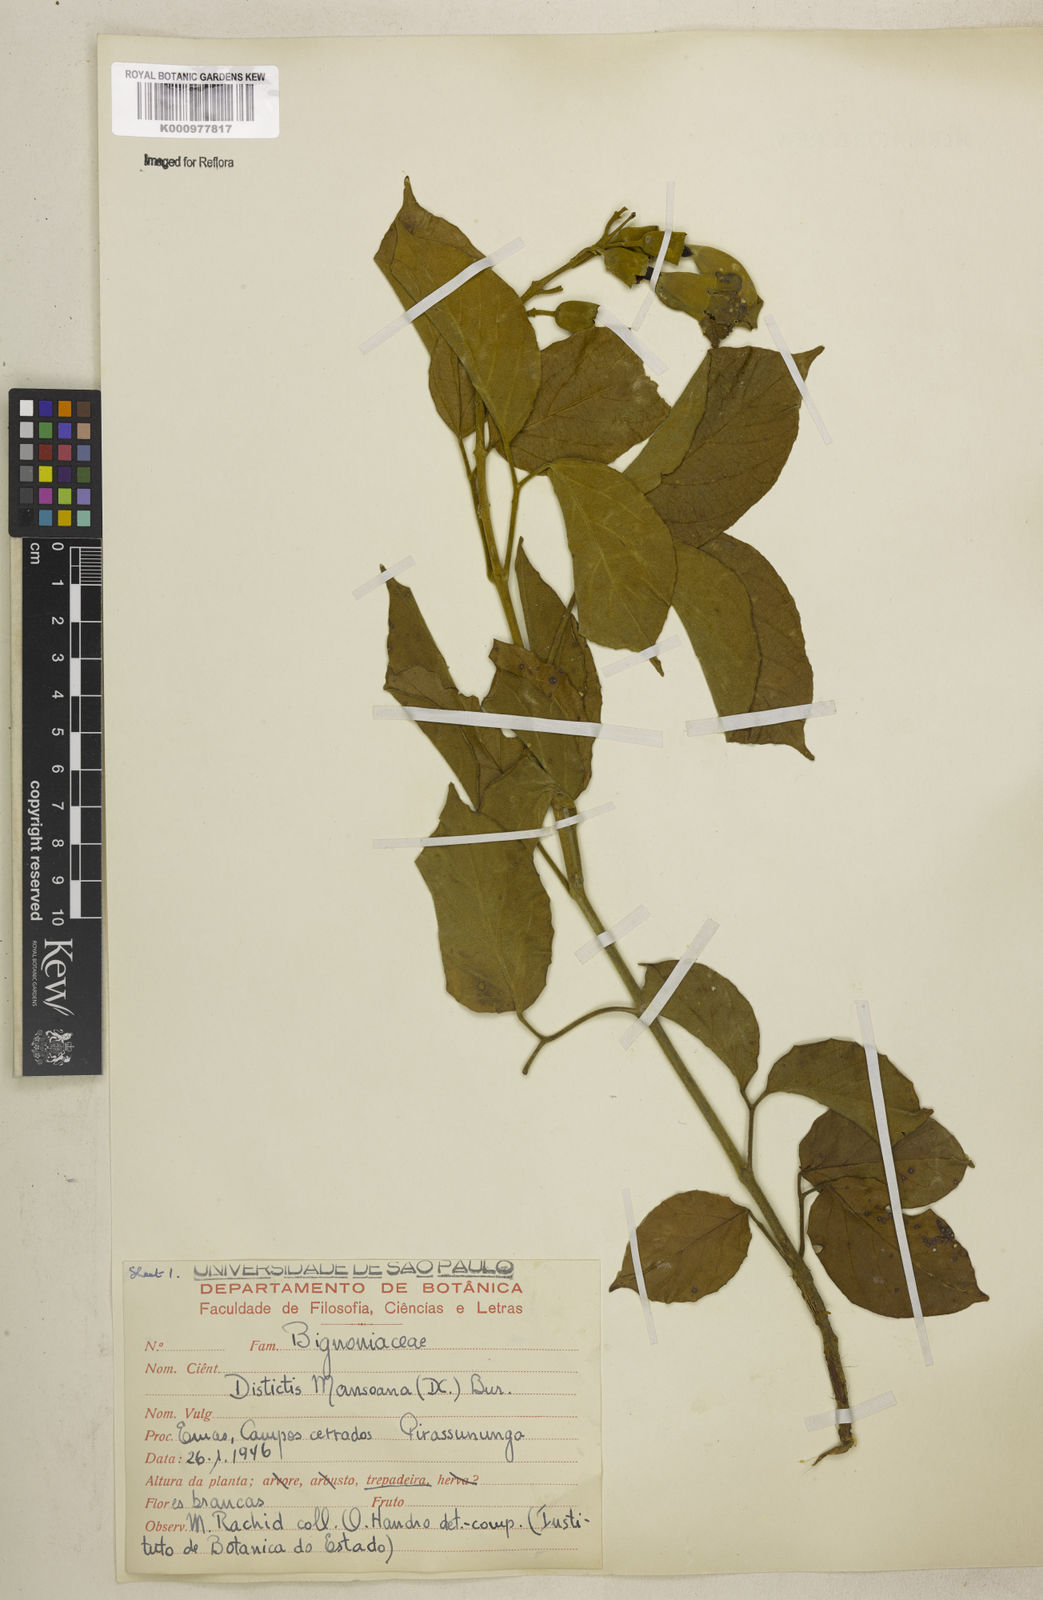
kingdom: Plantae
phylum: Tracheophyta
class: Magnoliopsida
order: Lamiales
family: Bignoniaceae
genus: Amphilophium
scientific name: Amphilophium mansoanum
